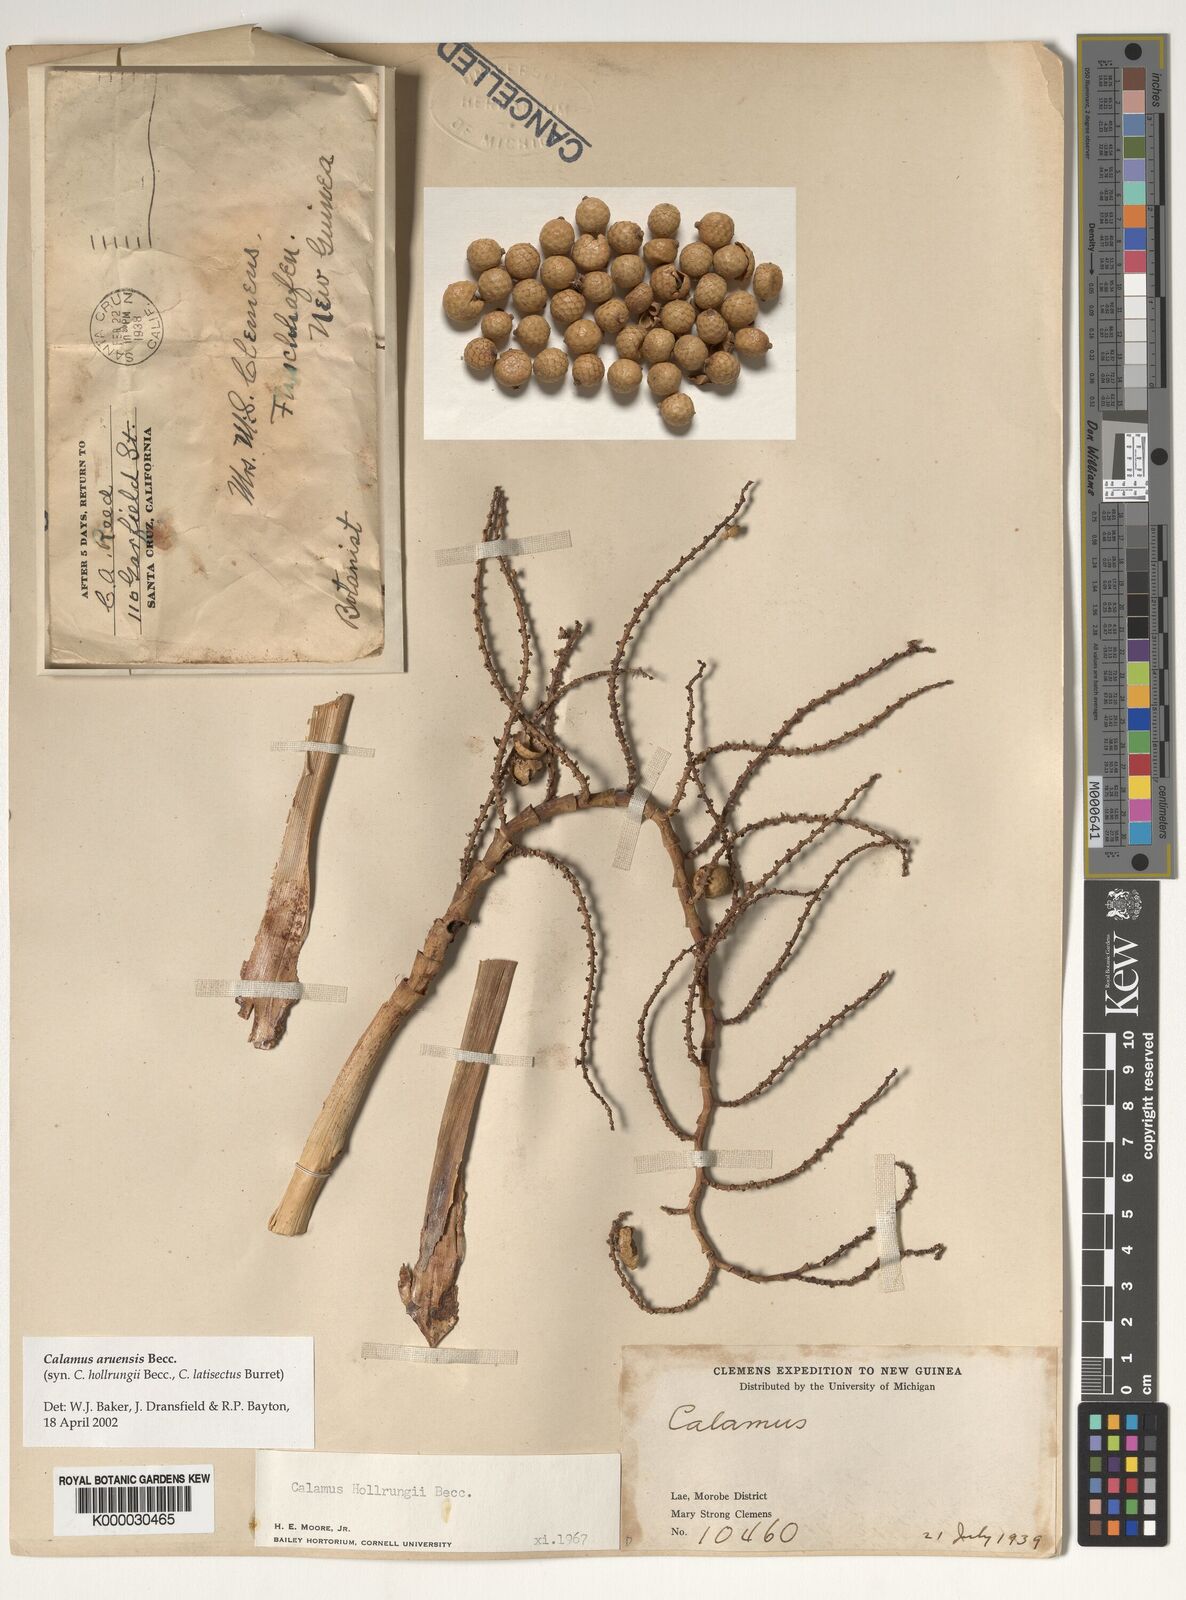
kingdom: Plantae
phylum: Tracheophyta
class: Liliopsida
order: Arecales
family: Arecaceae
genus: Calamus
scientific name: Calamus aruensis
